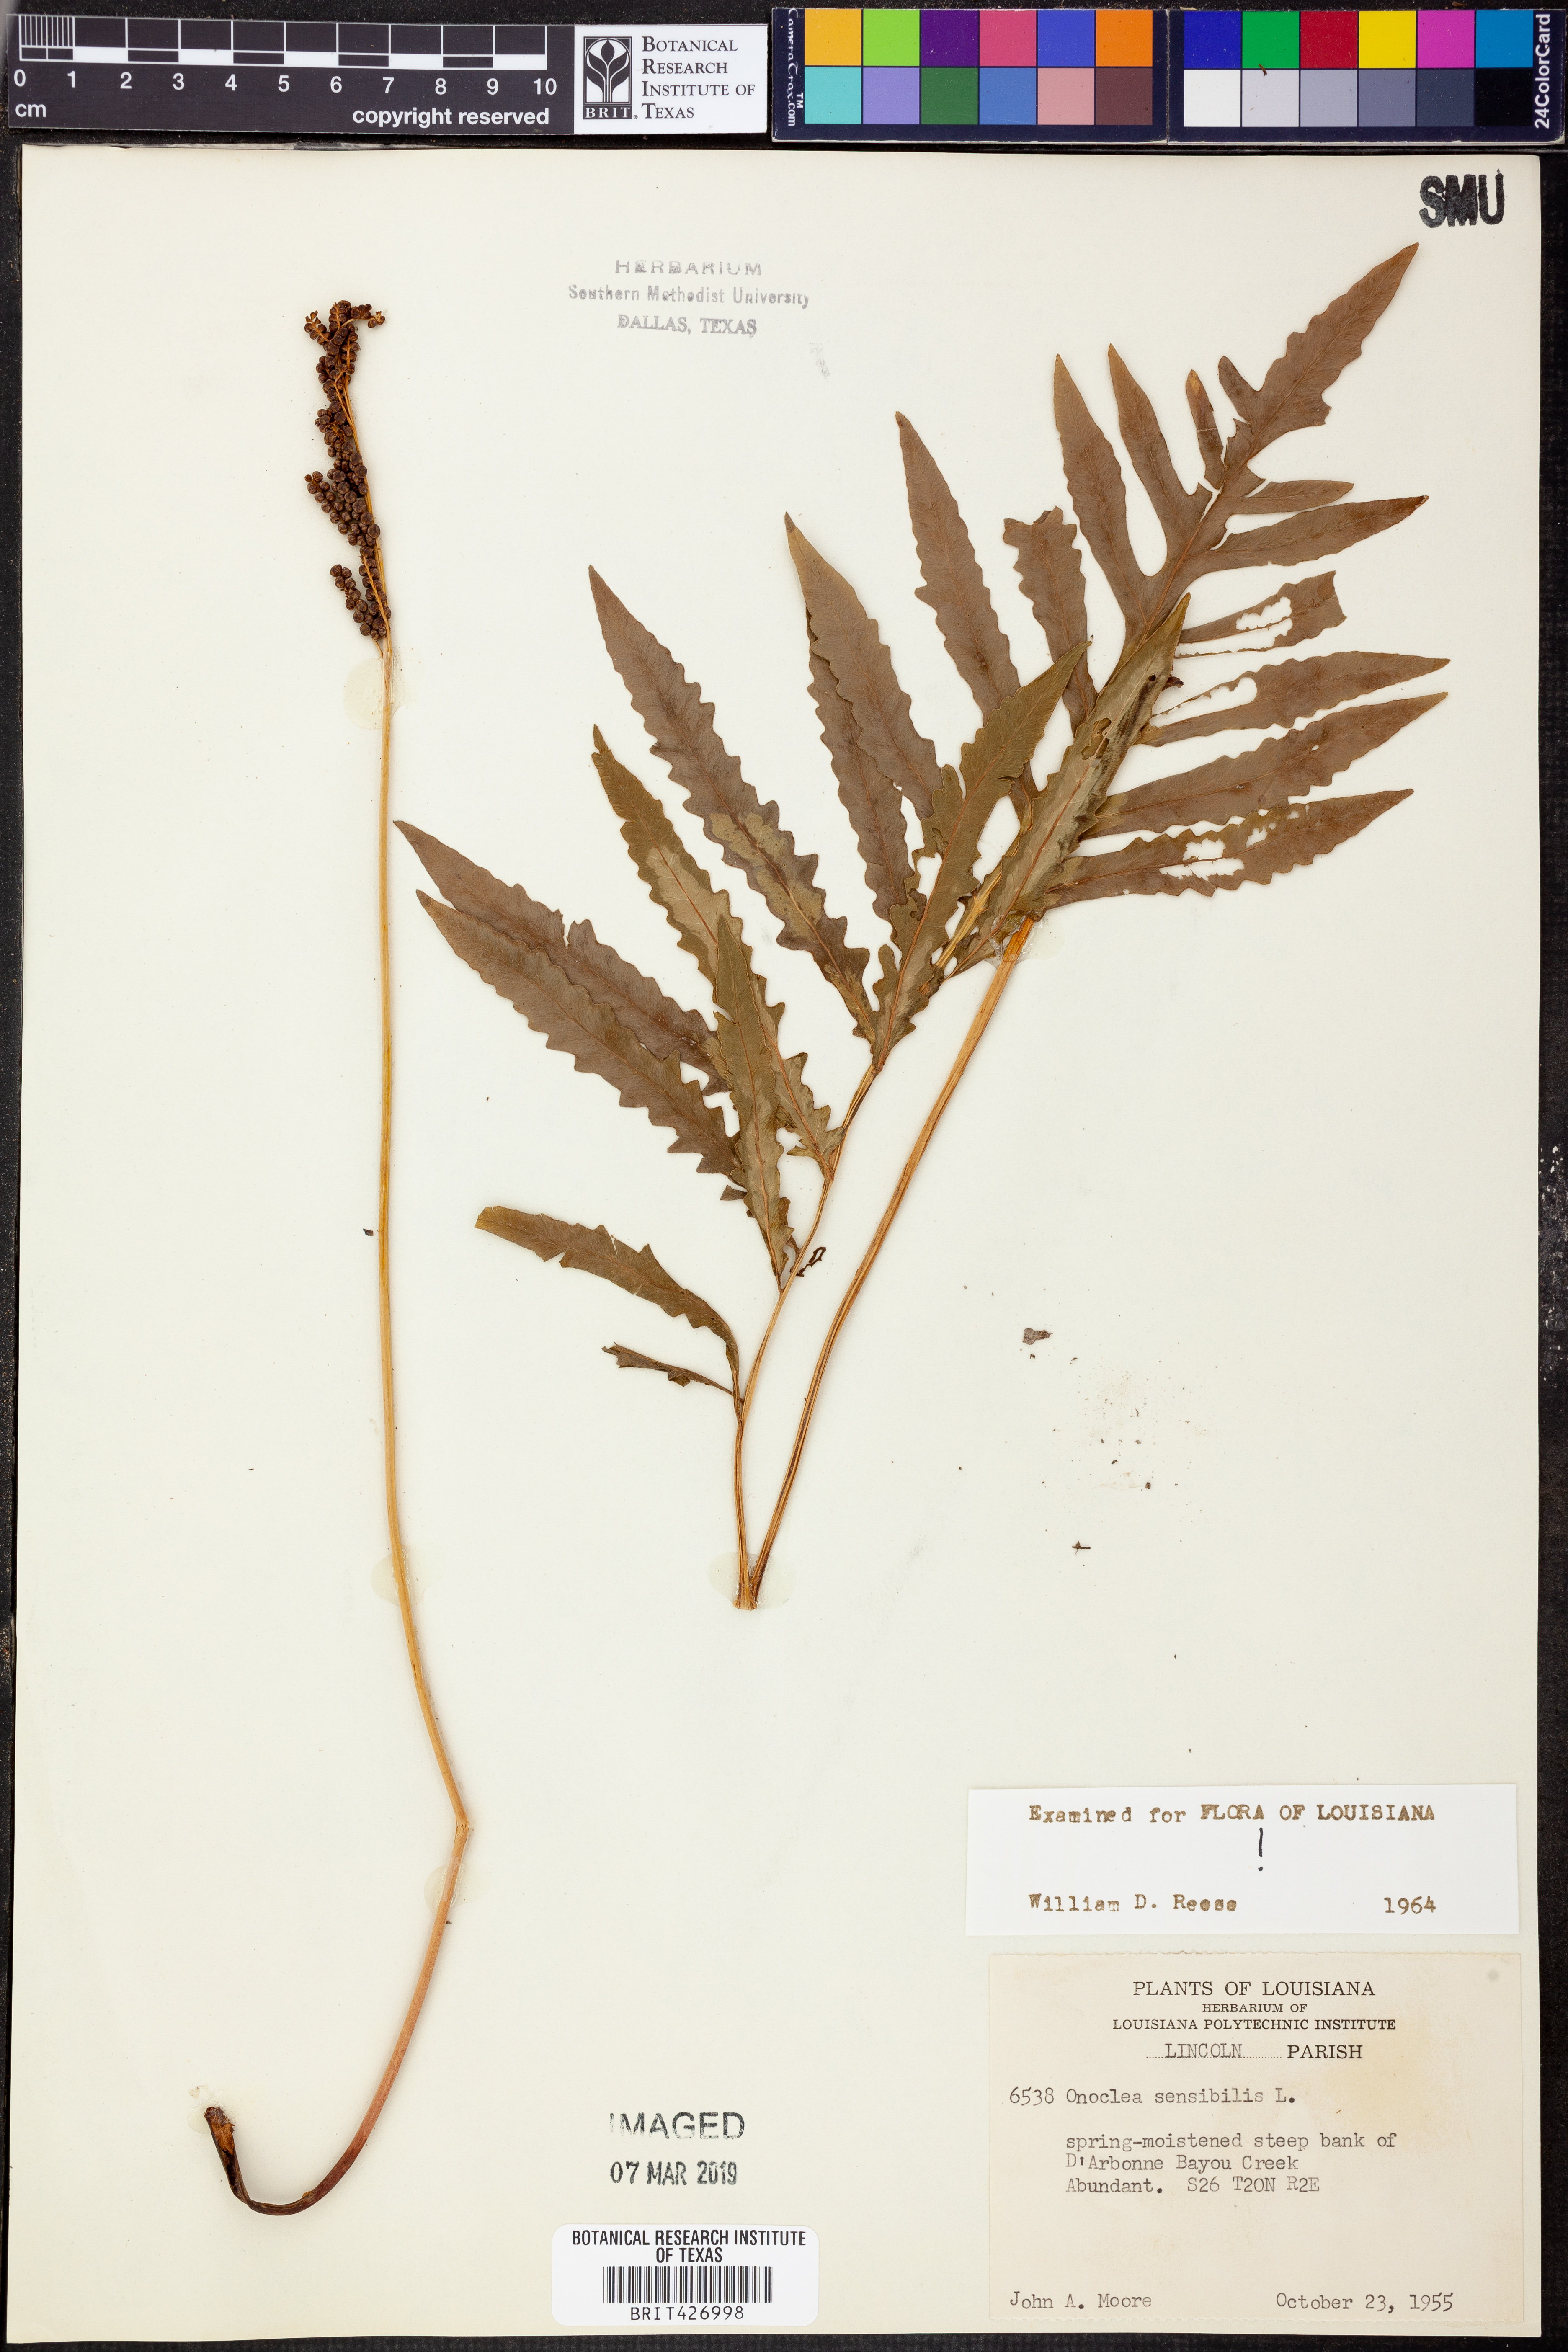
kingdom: Plantae
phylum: Tracheophyta
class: Polypodiopsida
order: Polypodiales
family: Onocleaceae
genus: Onoclea
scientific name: Onoclea sensibilis
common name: Sensitive fern
